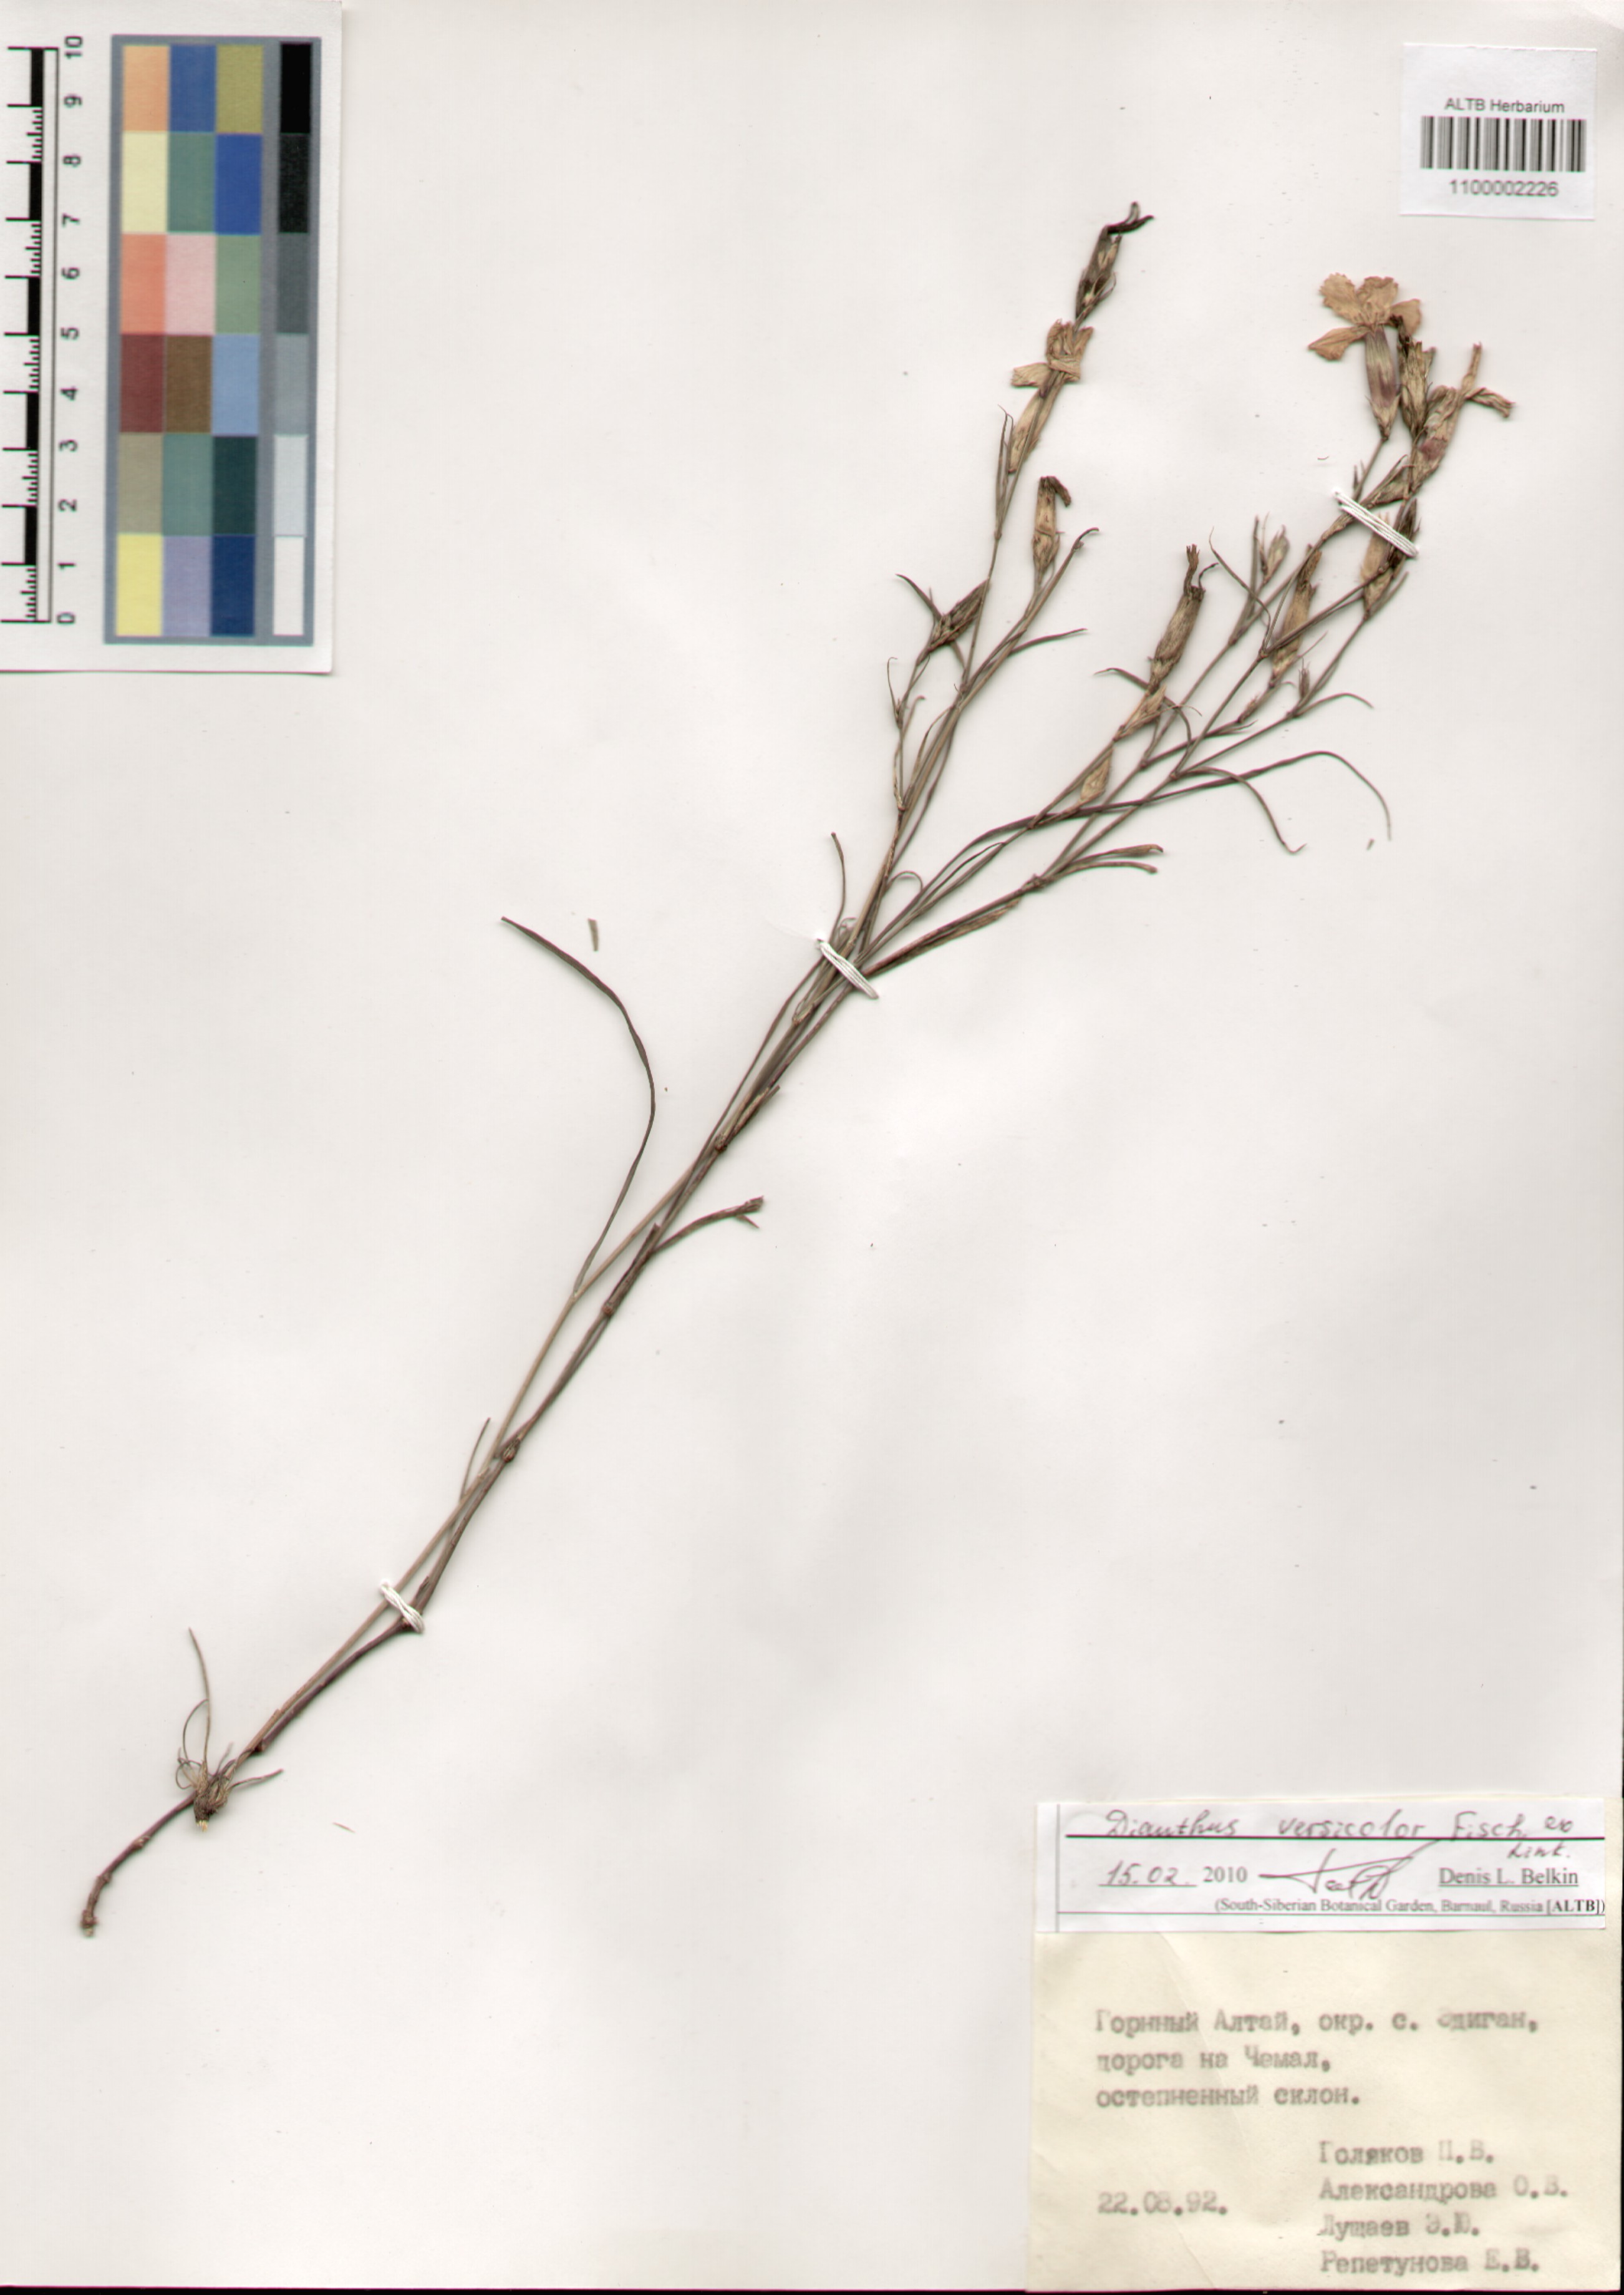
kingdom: Plantae
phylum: Tracheophyta
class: Magnoliopsida
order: Caryophyllales
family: Caryophyllaceae
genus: Dianthus
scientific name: Dianthus chinensis
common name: Rainbow pink
